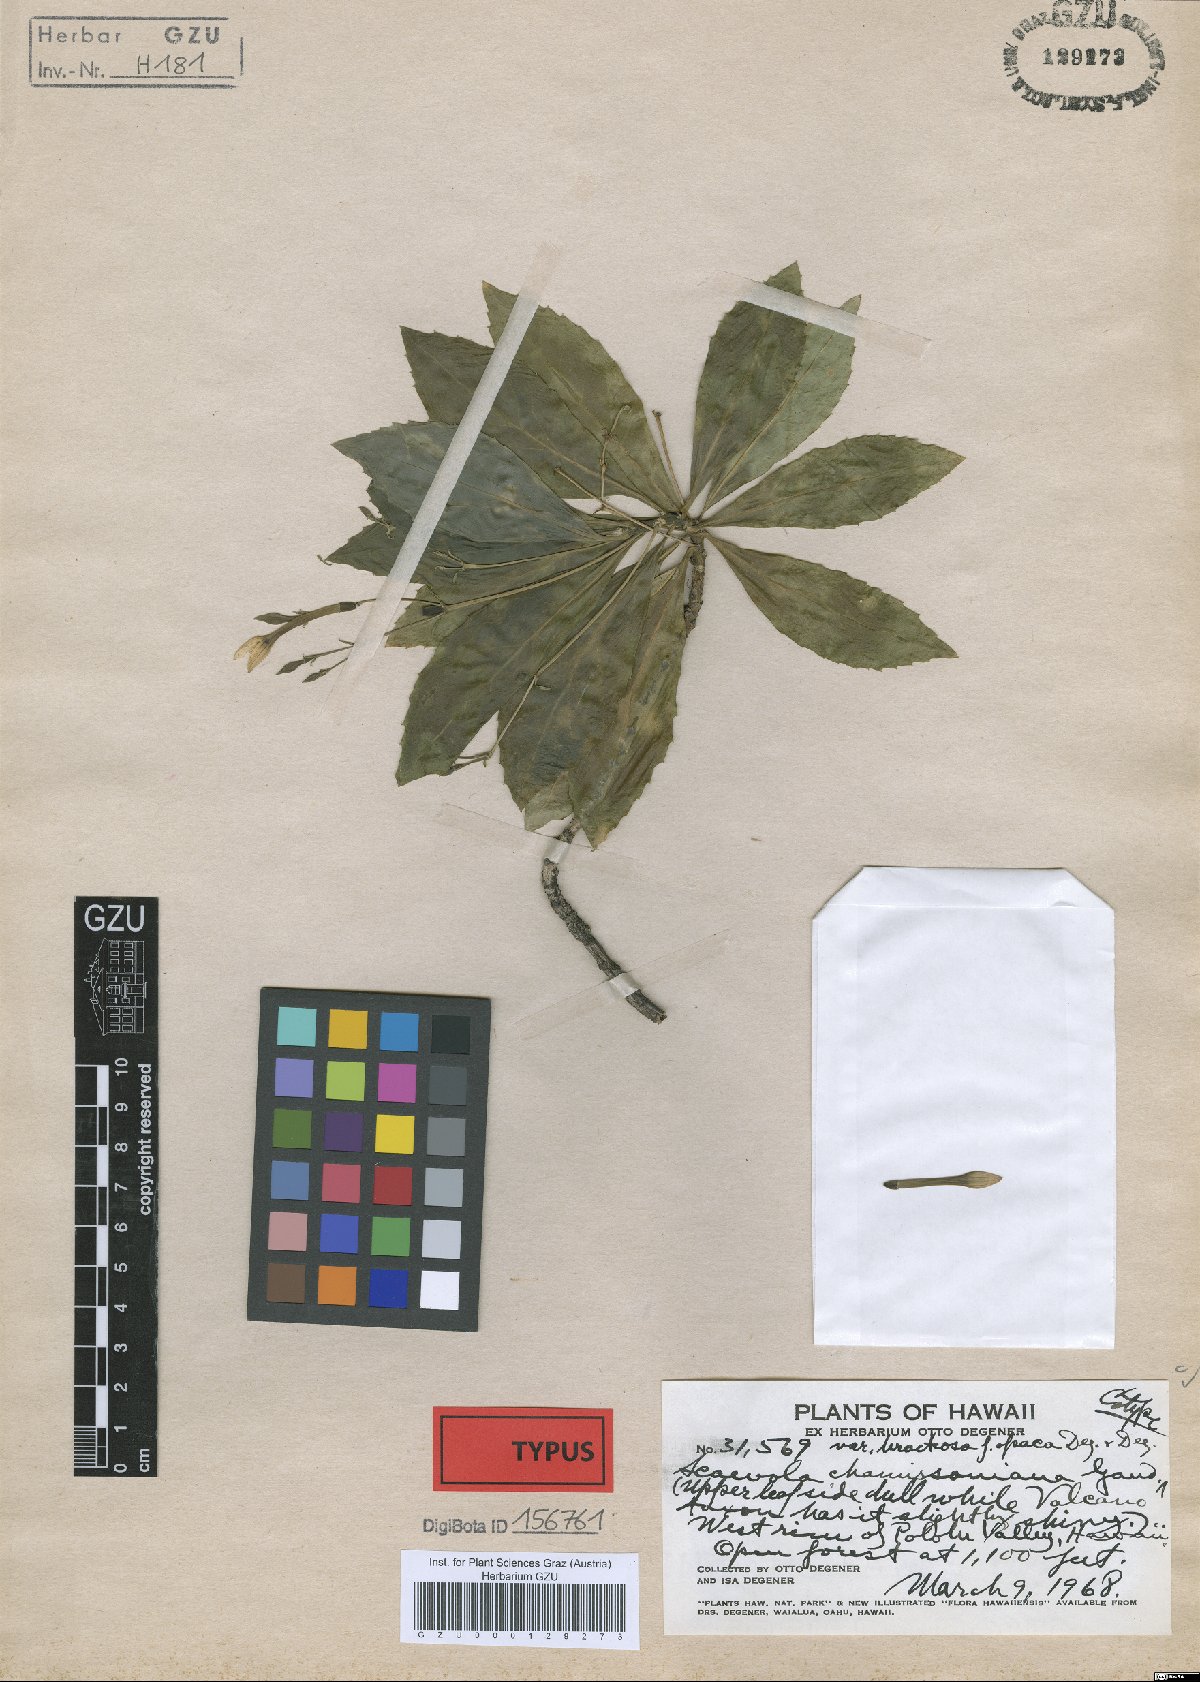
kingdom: Plantae
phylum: Tracheophyta
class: Magnoliopsida
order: Asterales
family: Goodeniaceae
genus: Scaevola
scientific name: Scaevola chamissoniana
